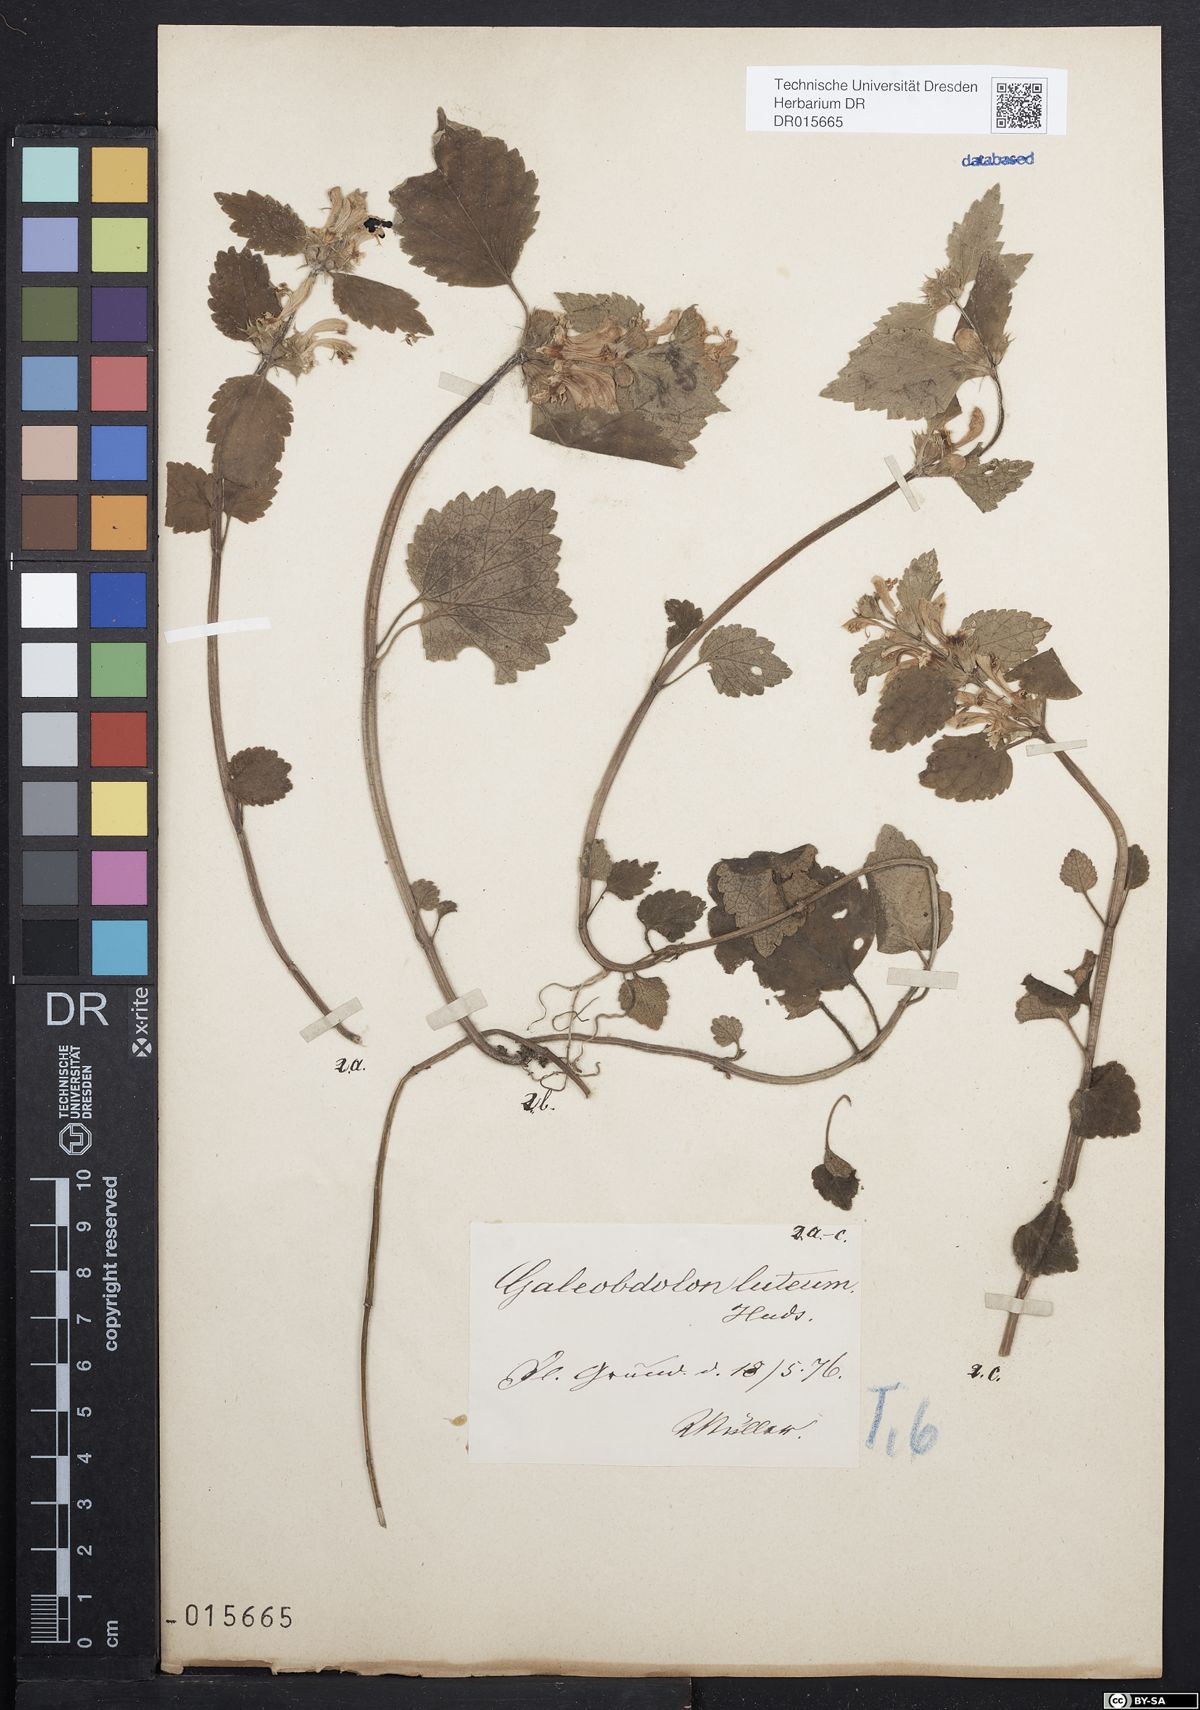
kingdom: Plantae
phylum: Tracheophyta
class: Magnoliopsida
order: Lamiales
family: Lamiaceae
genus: Lamium
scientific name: Lamium galeobdolon
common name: Yellow archangel
